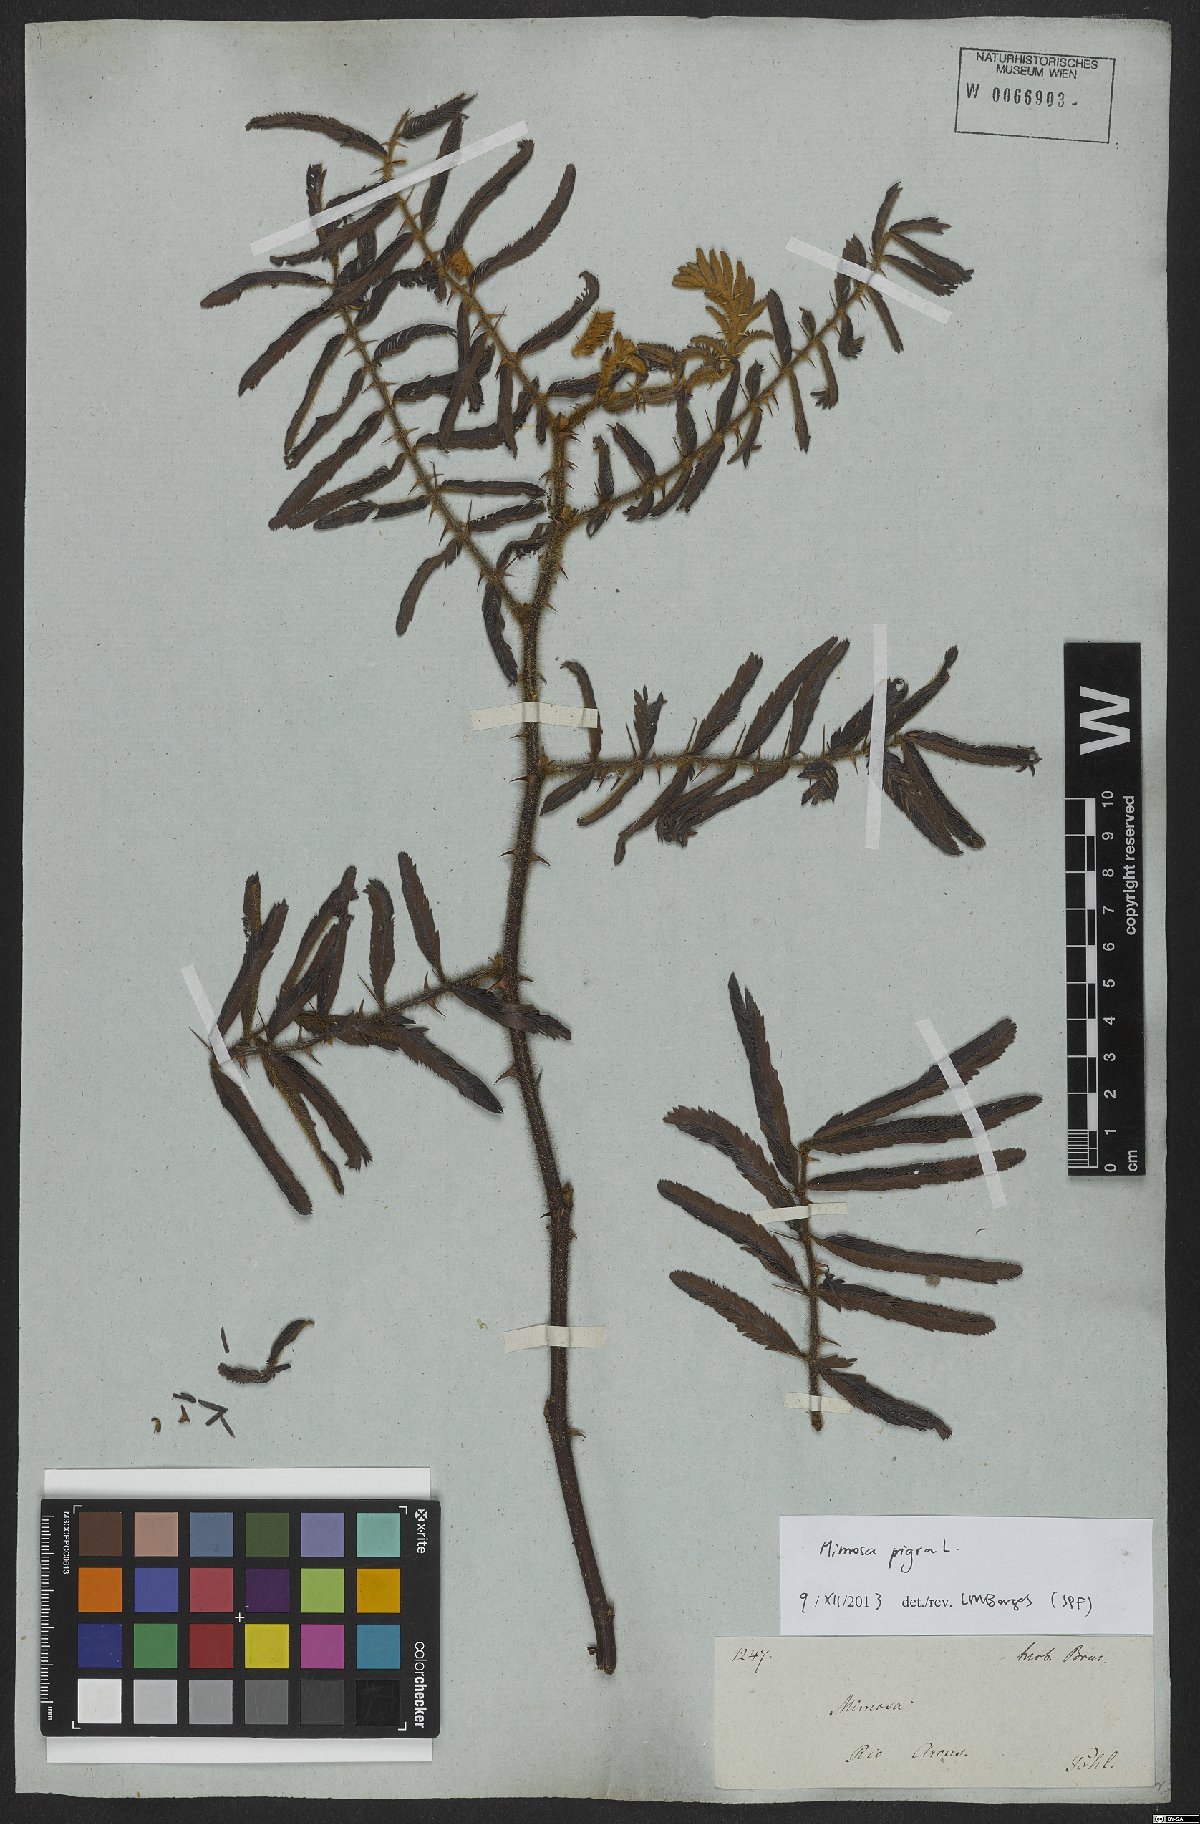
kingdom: Plantae
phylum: Tracheophyta
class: Magnoliopsida
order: Fabales
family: Fabaceae
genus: Mimosa
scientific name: Mimosa pigra
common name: Black mimosa
